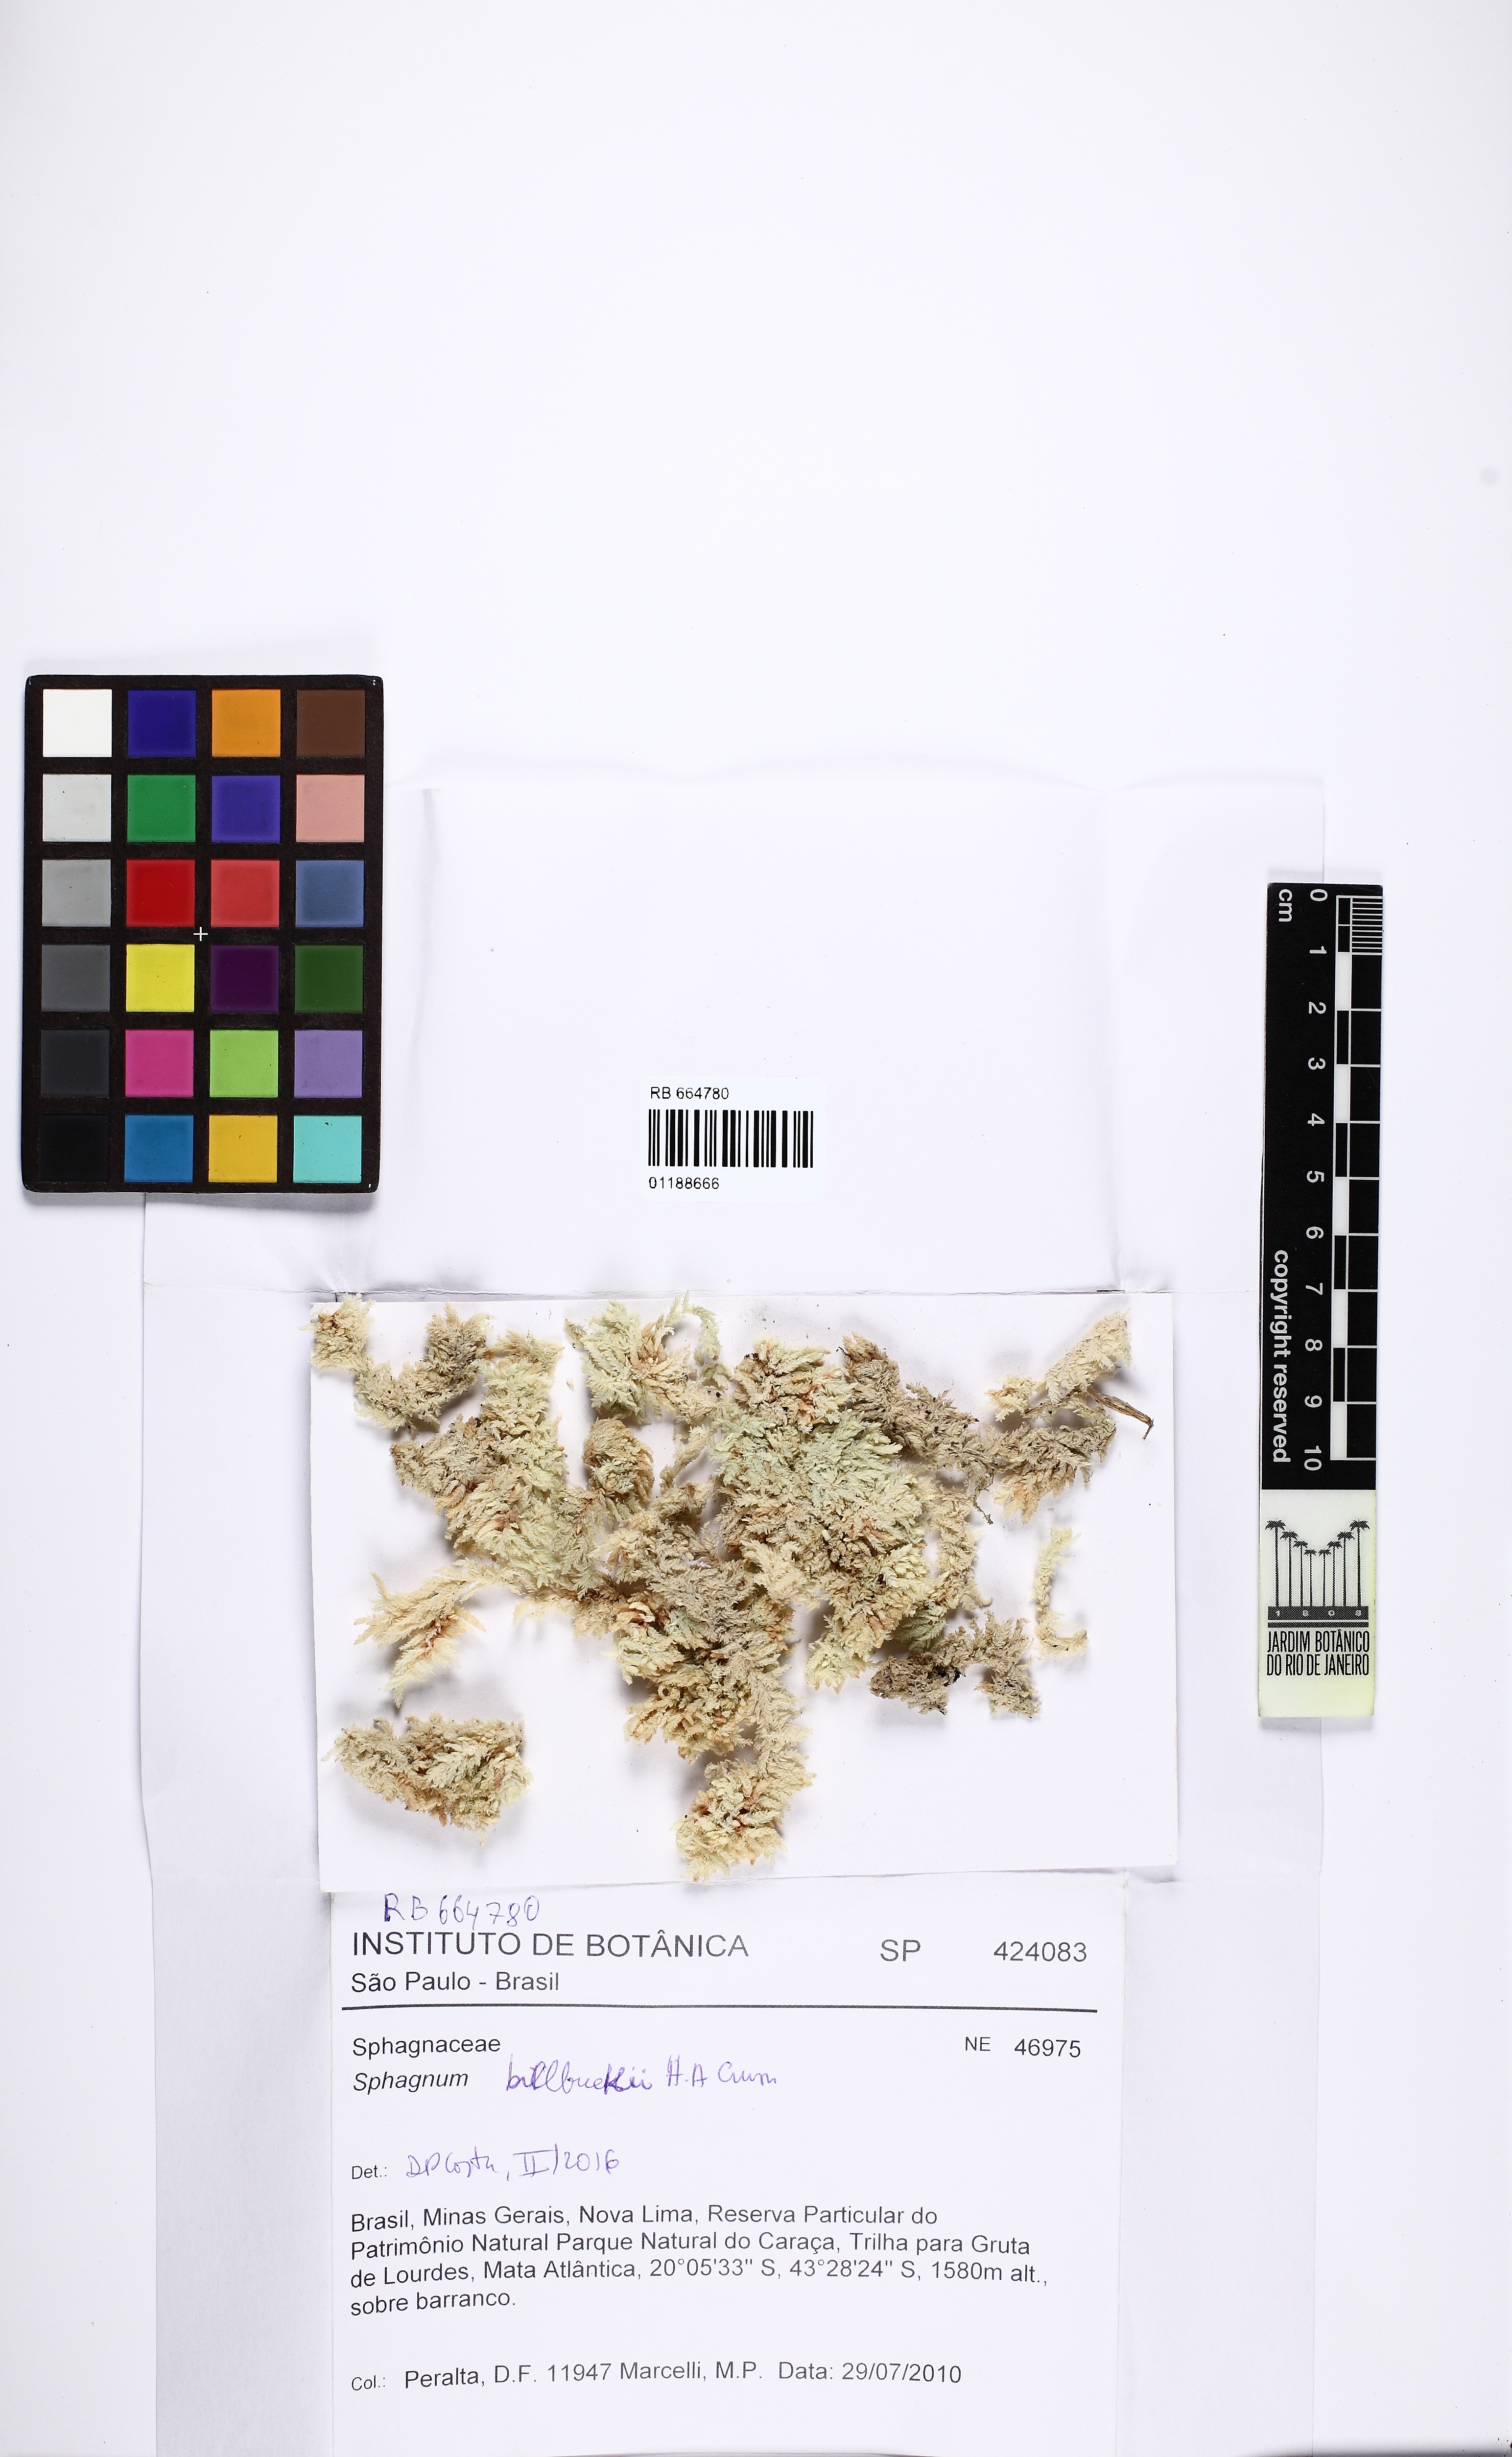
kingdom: Plantae
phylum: Bryophyta
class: Sphagnopsida
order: Sphagnales
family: Sphagnaceae
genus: Sphagnum
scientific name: Sphagnum billbuckii
